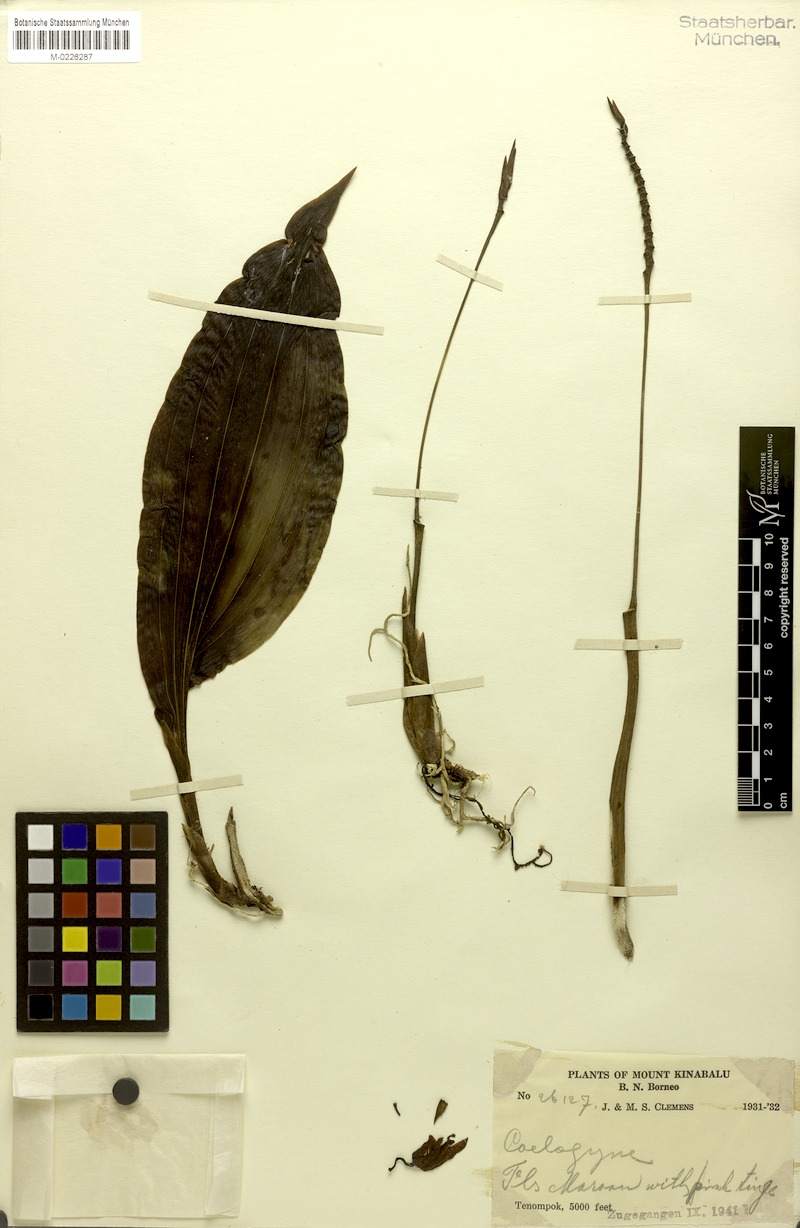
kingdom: Plantae
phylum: Tracheophyta
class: Liliopsida
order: Asparagales
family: Orchidaceae
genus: Coelogyne
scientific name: Coelogyne monilirachis
